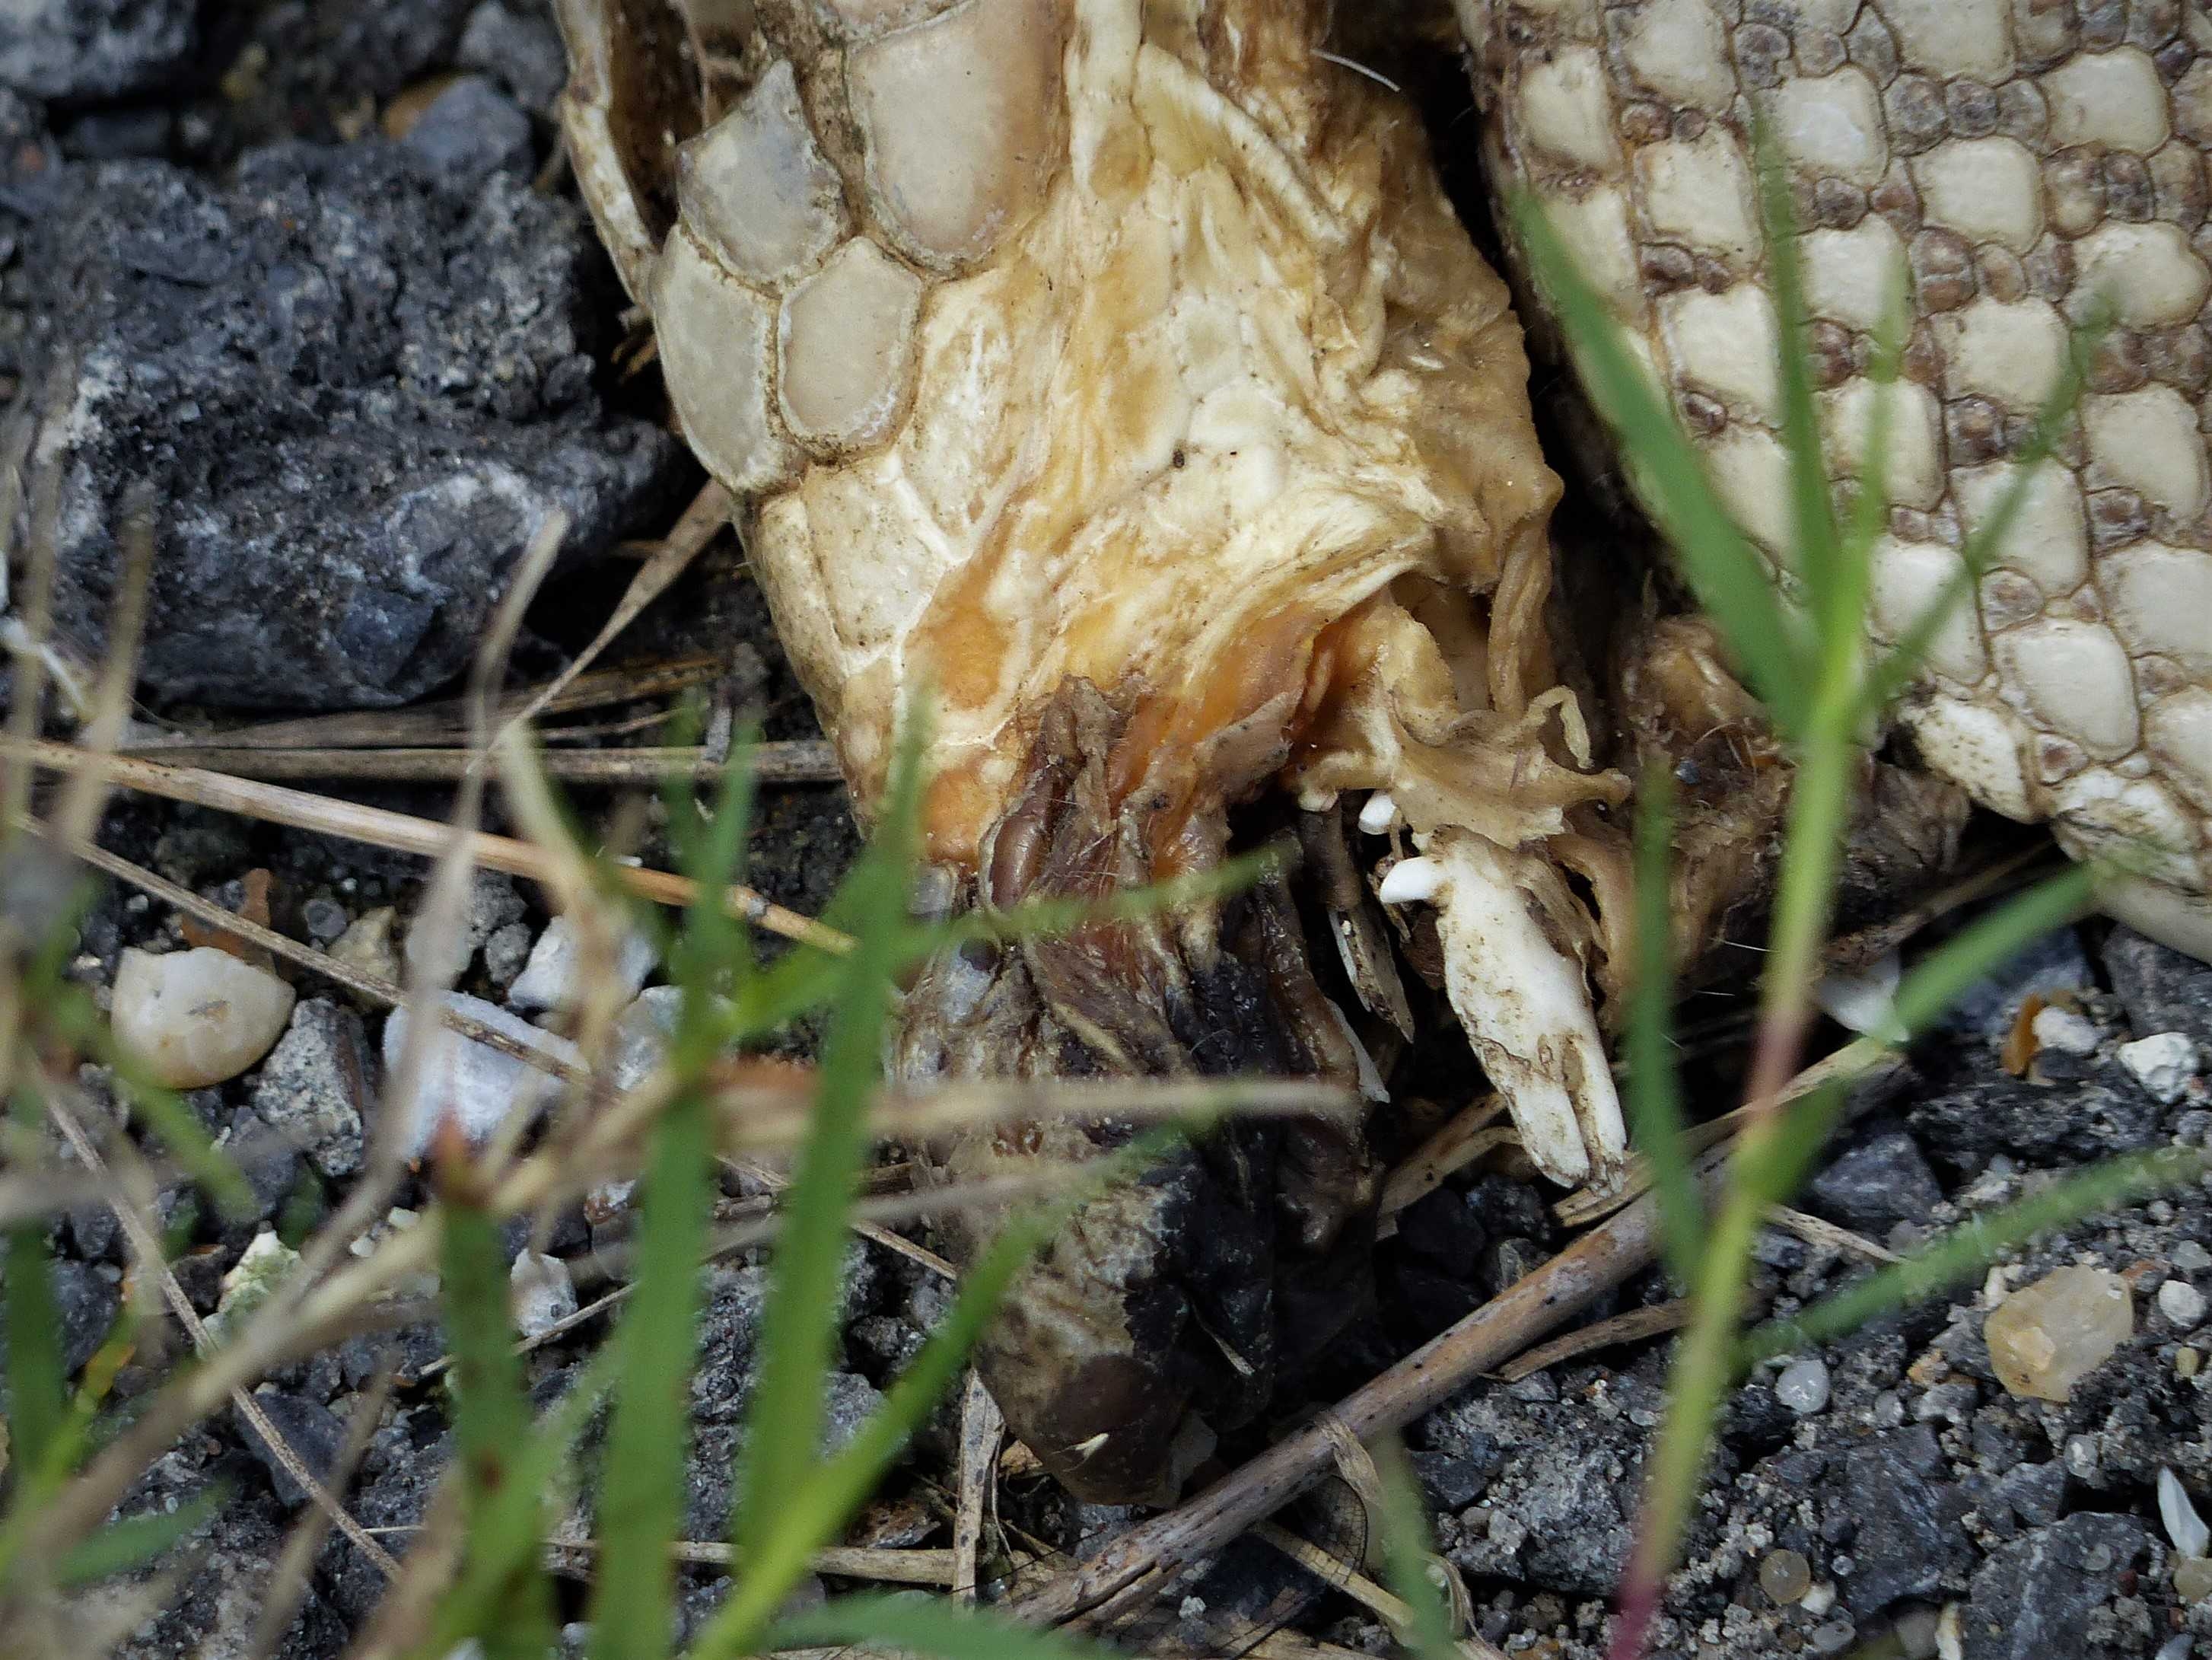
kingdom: Animalia
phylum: Chordata
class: Mammalia
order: Cingulata
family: Dasypodidae
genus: Dasypus
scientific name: Dasypus novemcinctus
